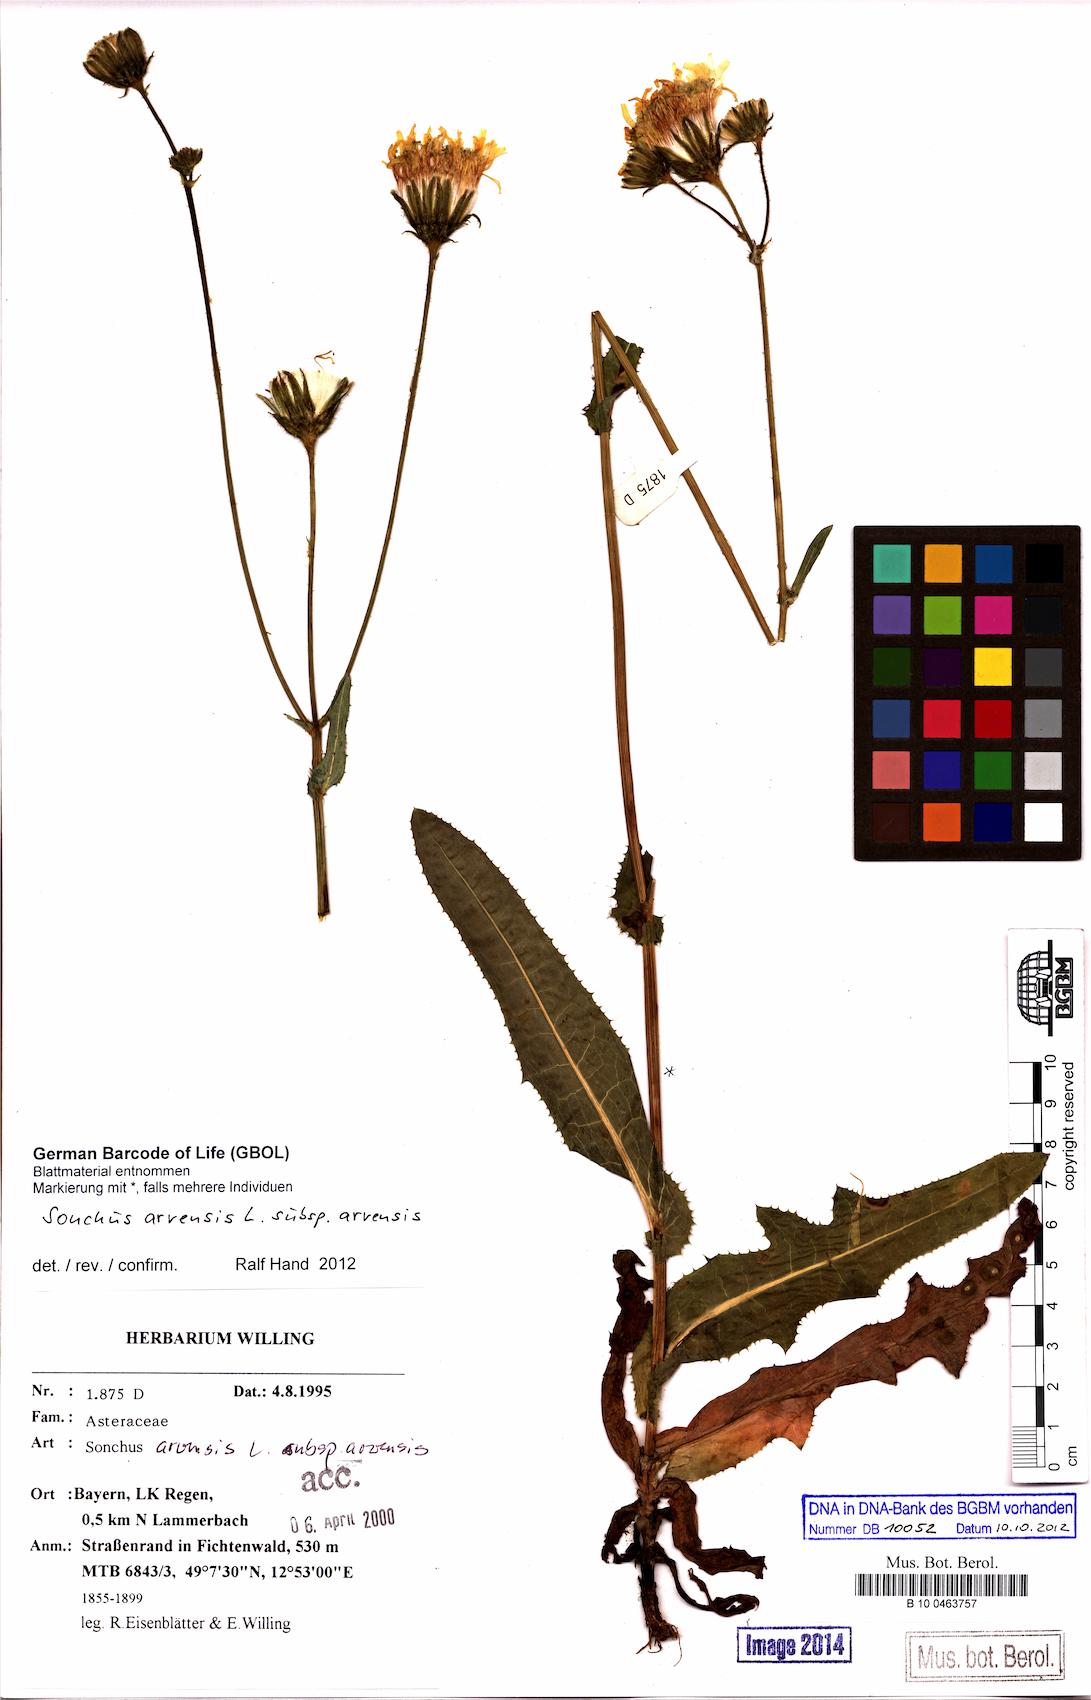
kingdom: Plantae
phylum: Tracheophyta
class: Magnoliopsida
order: Asterales
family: Asteraceae
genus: Sonchus
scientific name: Sonchus arvensis
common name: Perennial sow-thistle
